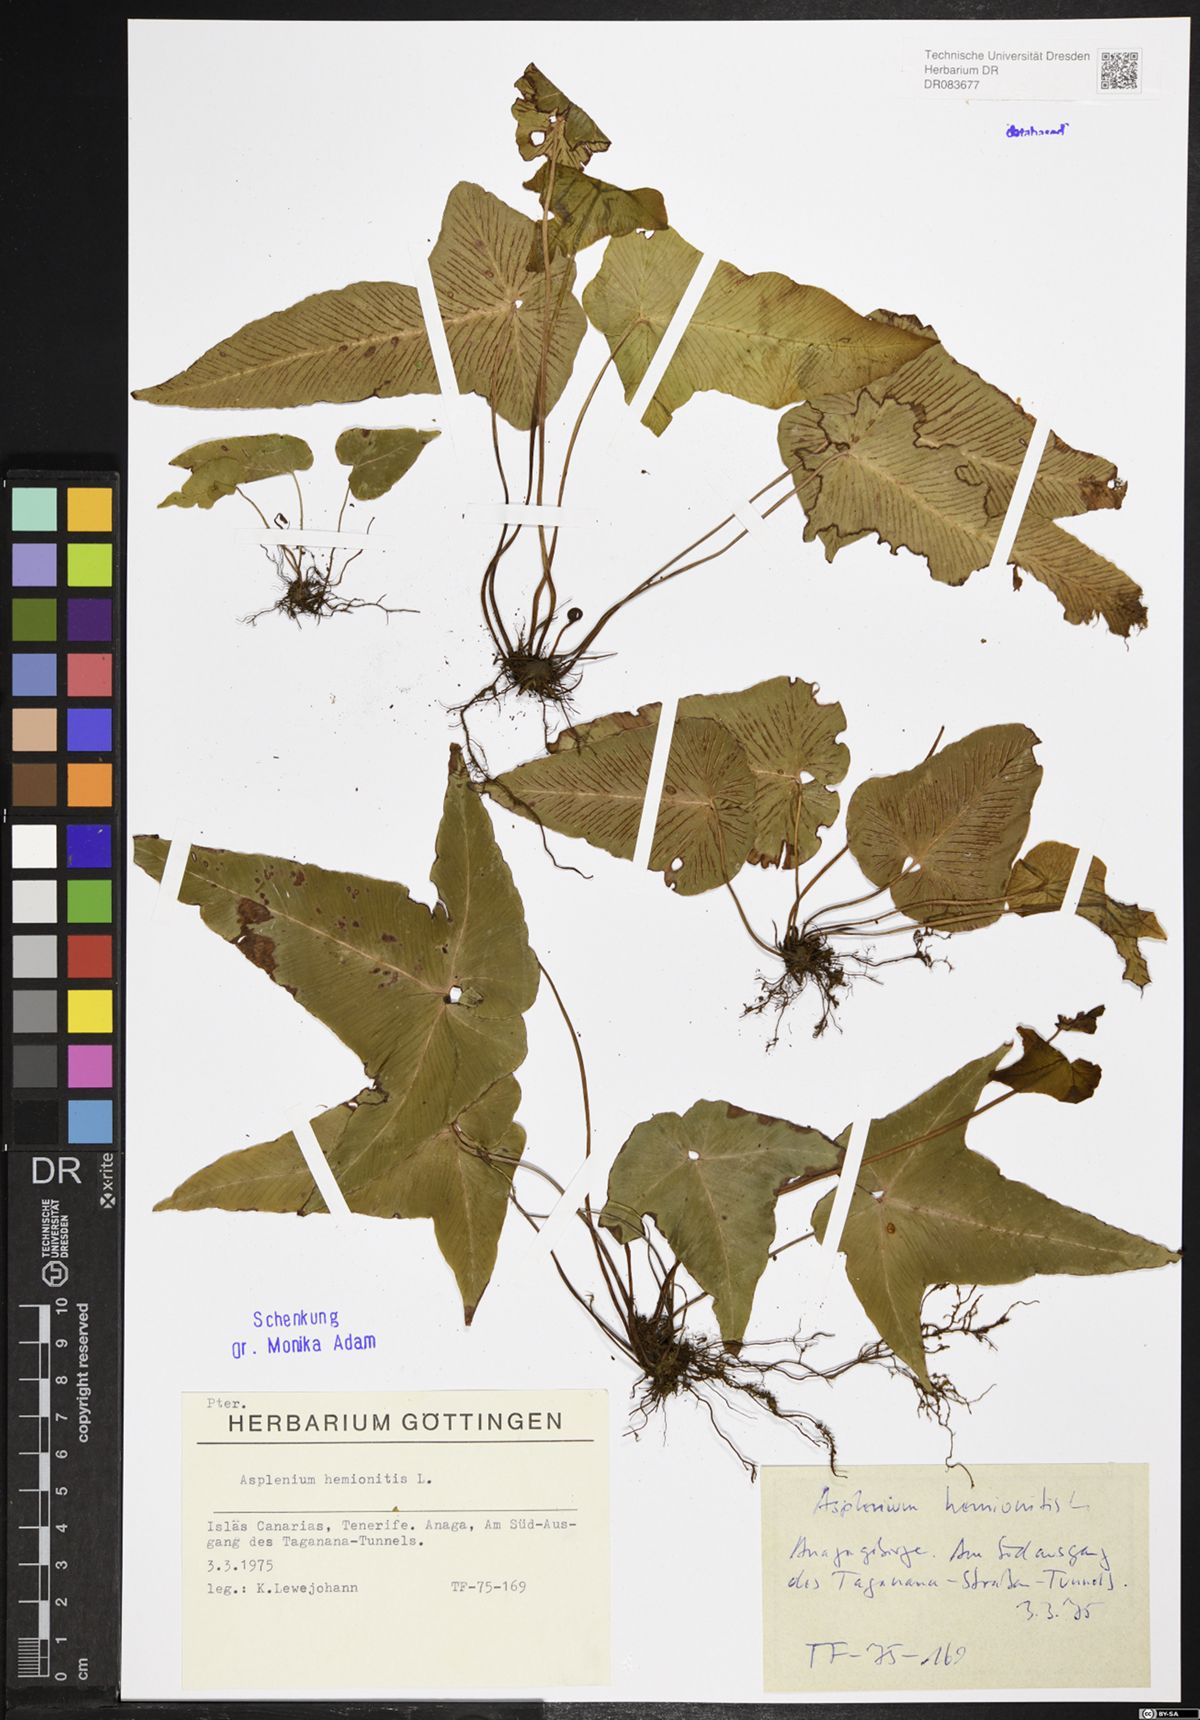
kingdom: Plantae
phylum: Tracheophyta
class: Polypodiopsida
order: Polypodiales
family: Aspleniaceae
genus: Asplenium
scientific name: Asplenium hemionitis
